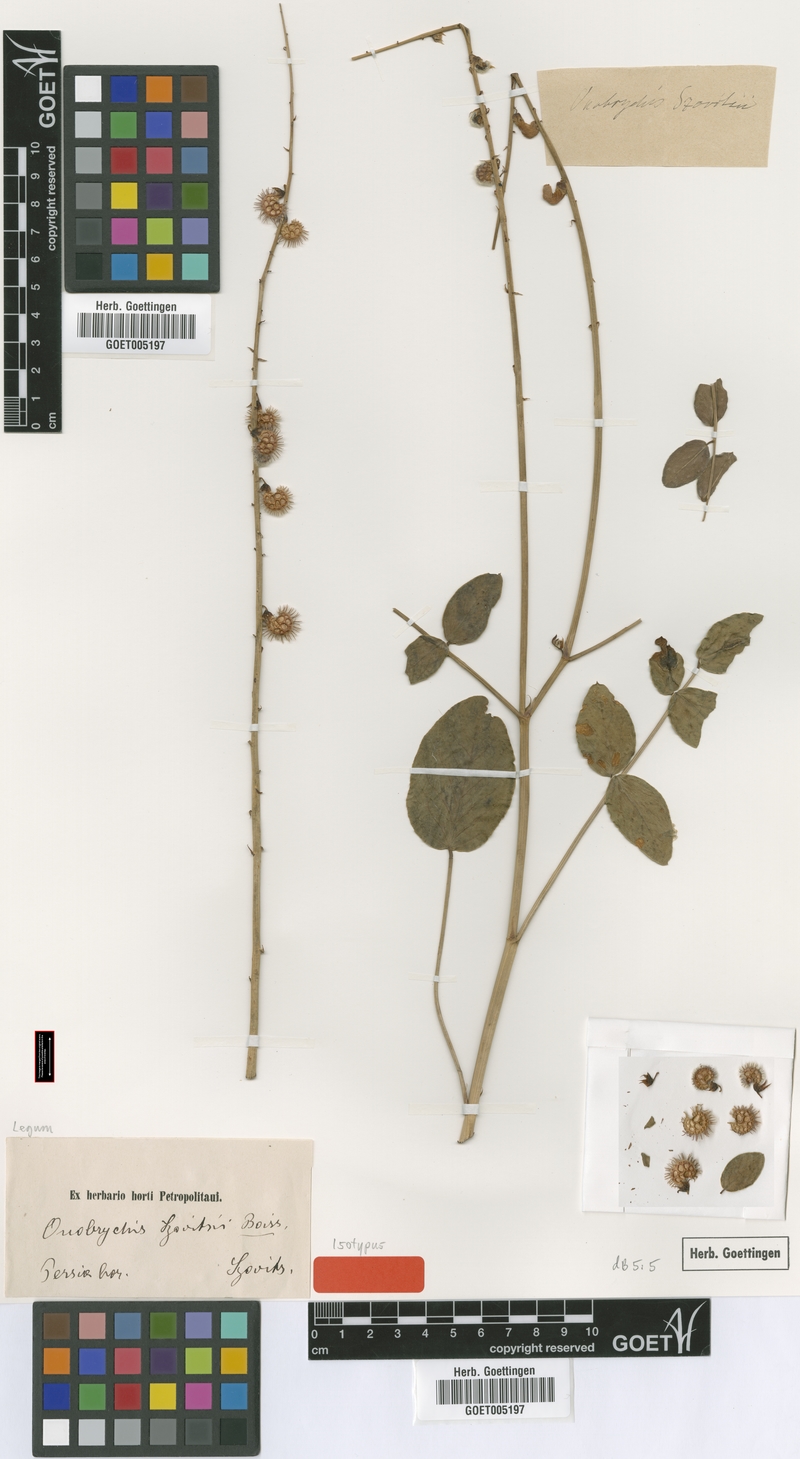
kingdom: Plantae
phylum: Tracheophyta
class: Magnoliopsida
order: Fabales
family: Fabaceae
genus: Onobrychis
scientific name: Onobrychis szovitsii
